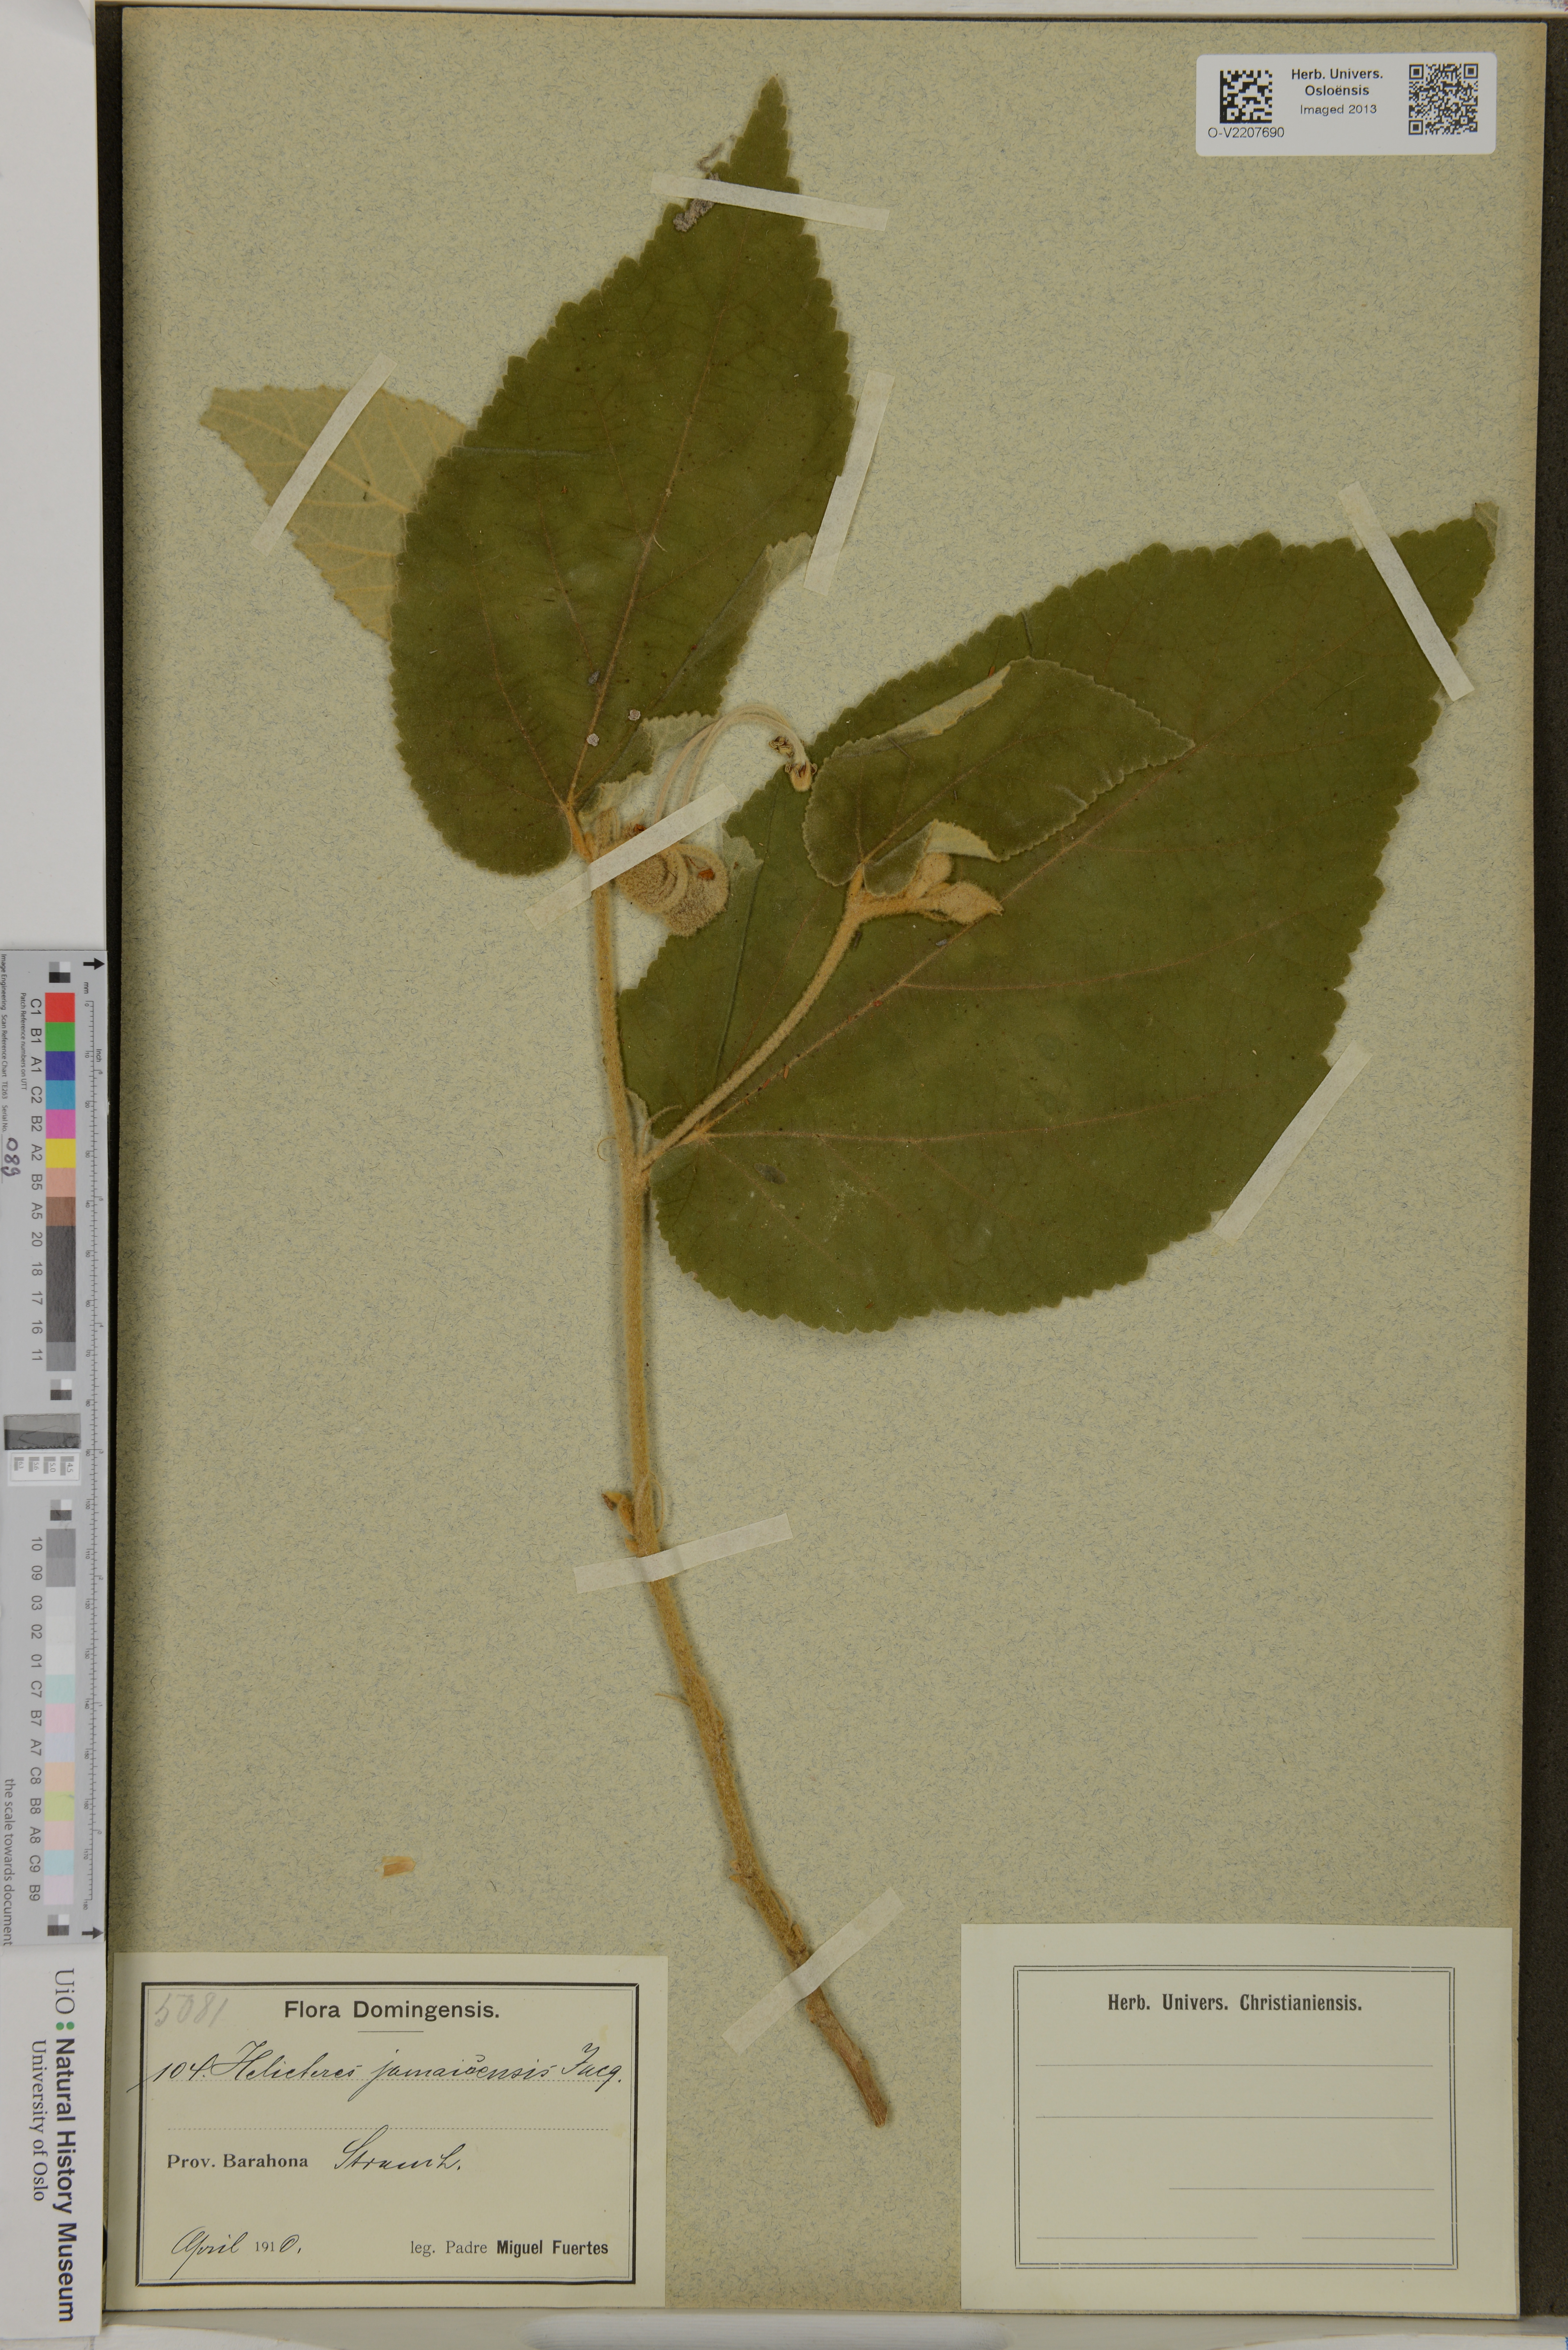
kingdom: Plantae
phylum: Tracheophyta
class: Magnoliopsida
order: Malvales
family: Malvaceae
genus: Helicteres
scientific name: Helicteres jamaicensis
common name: Cowbush
